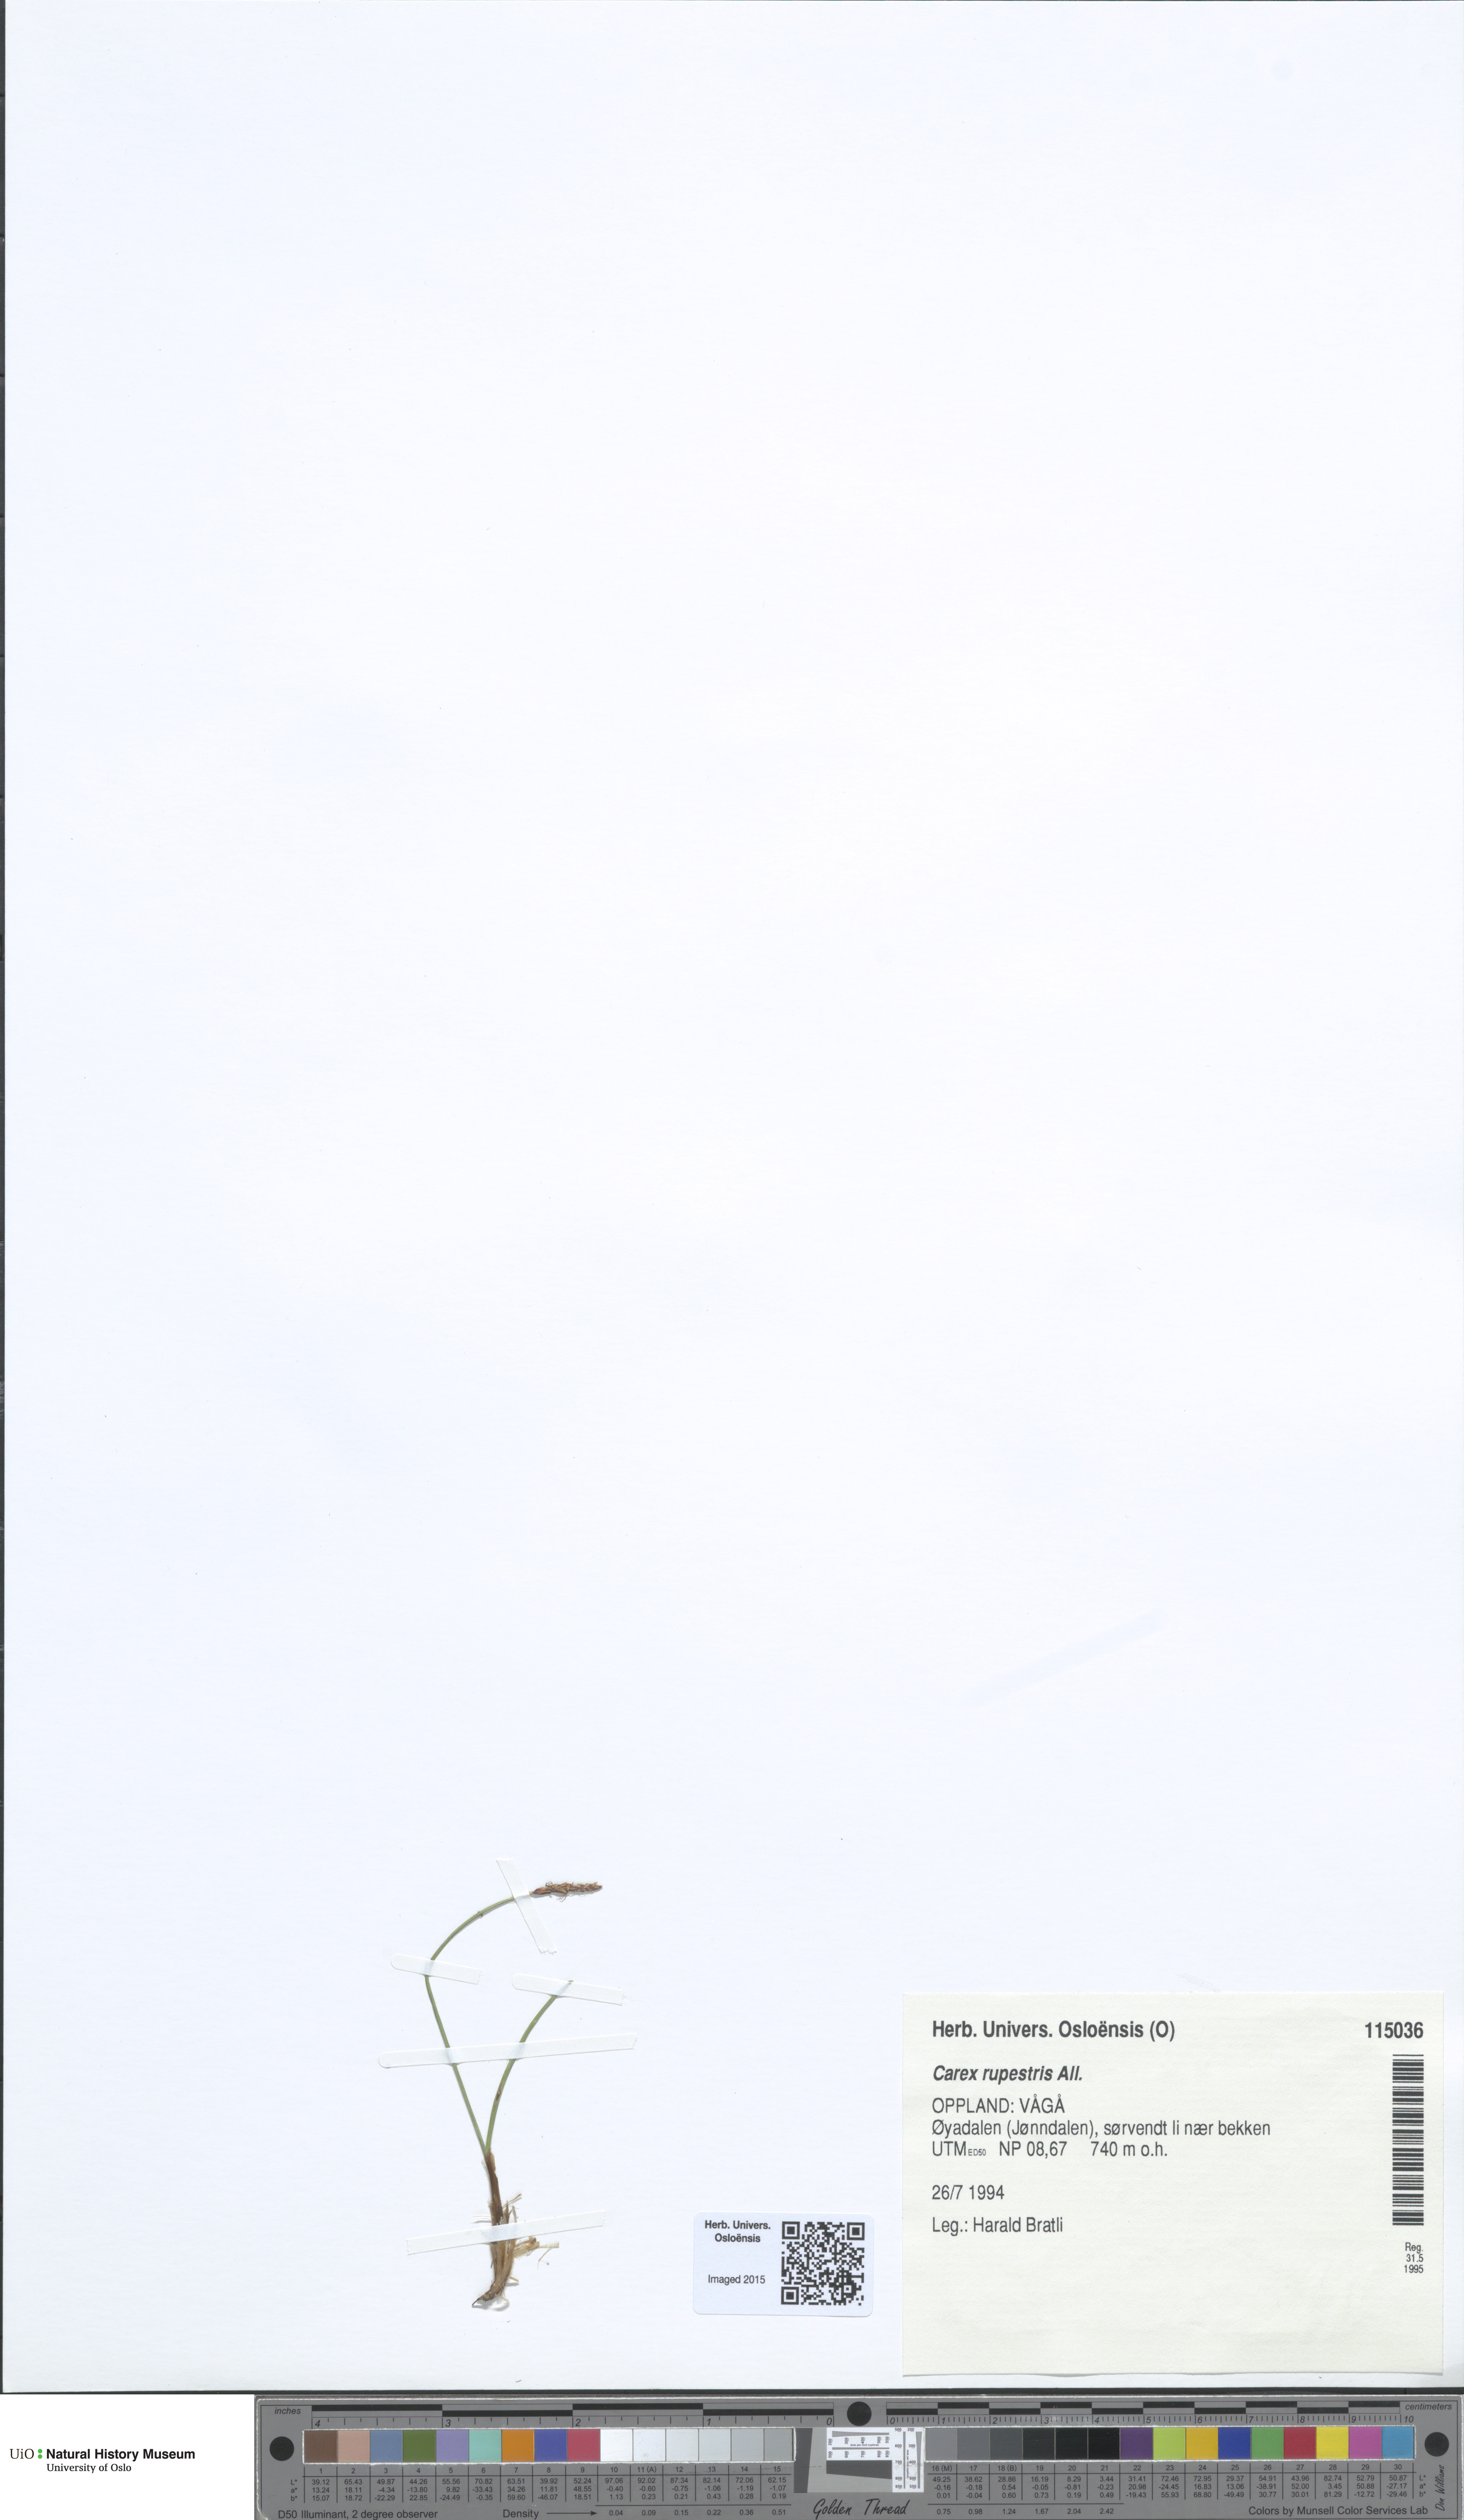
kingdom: Plantae
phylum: Tracheophyta
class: Liliopsida
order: Poales
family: Cyperaceae
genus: Carex
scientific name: Carex rupestris
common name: Rock sedge
